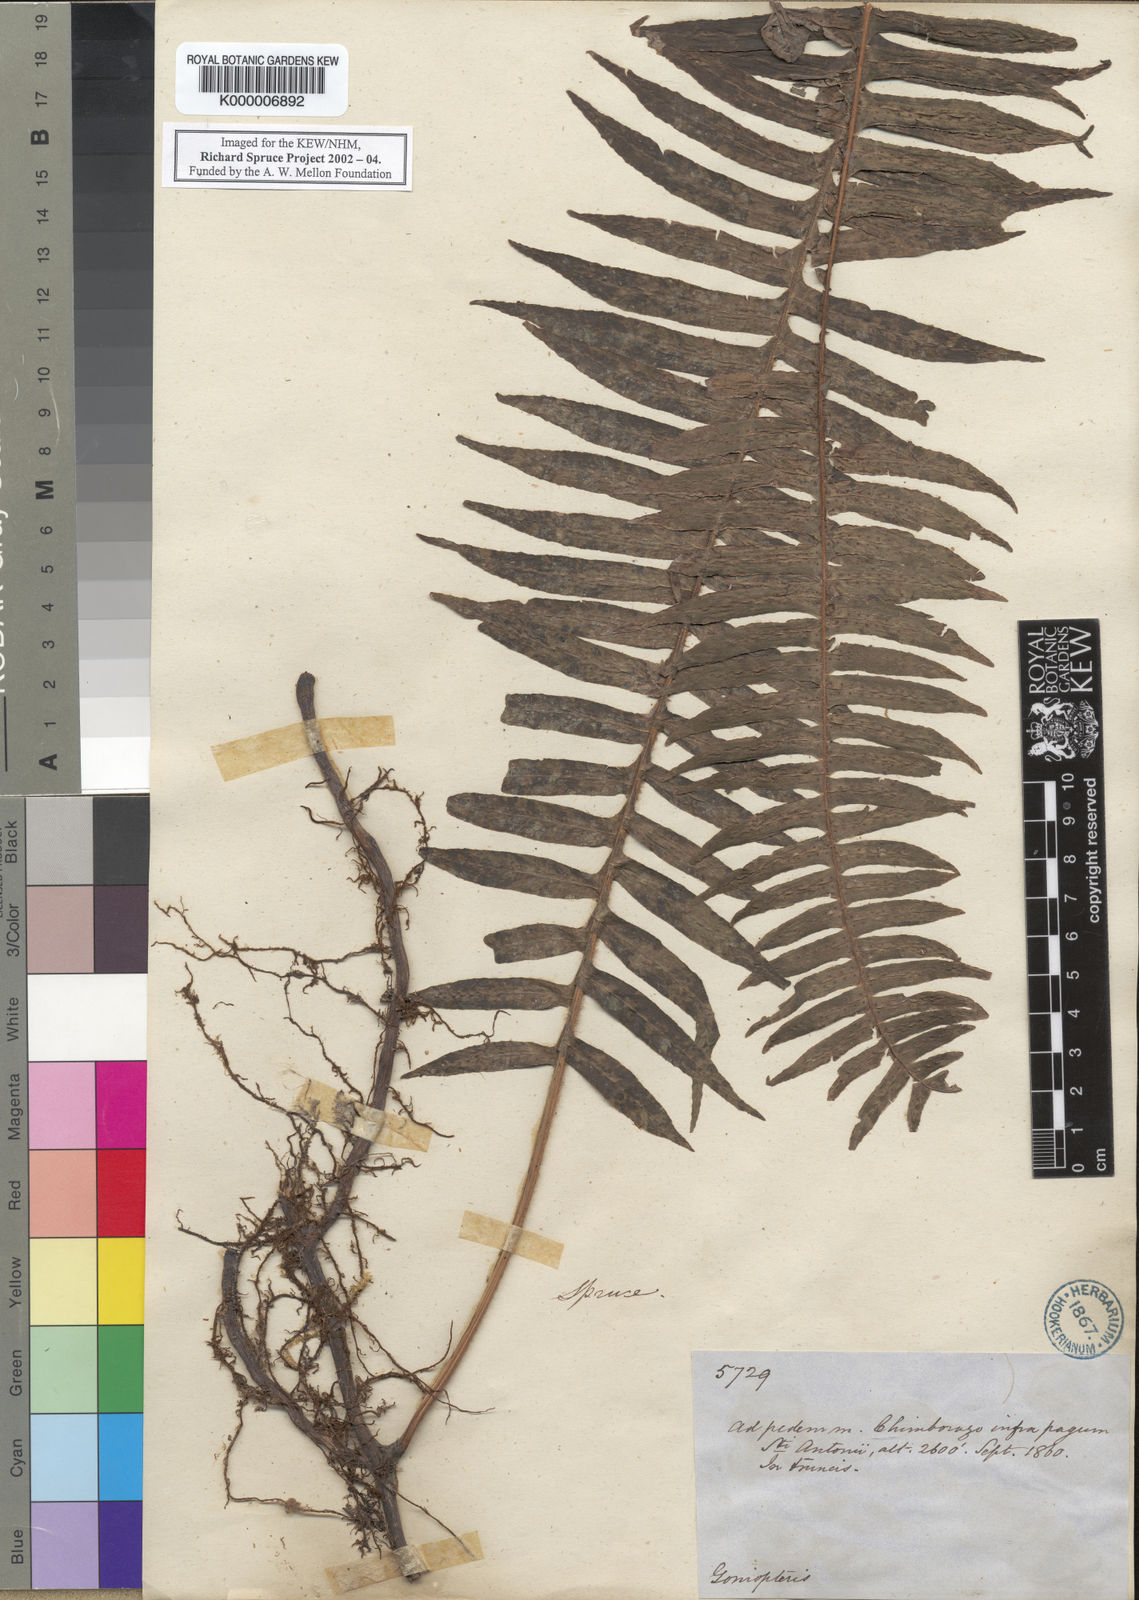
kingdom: Plantae
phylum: Tracheophyta
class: Polypodiopsida
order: Polypodiales
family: Polypodiaceae
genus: Serpocaulon
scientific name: Serpocaulon loriceum
